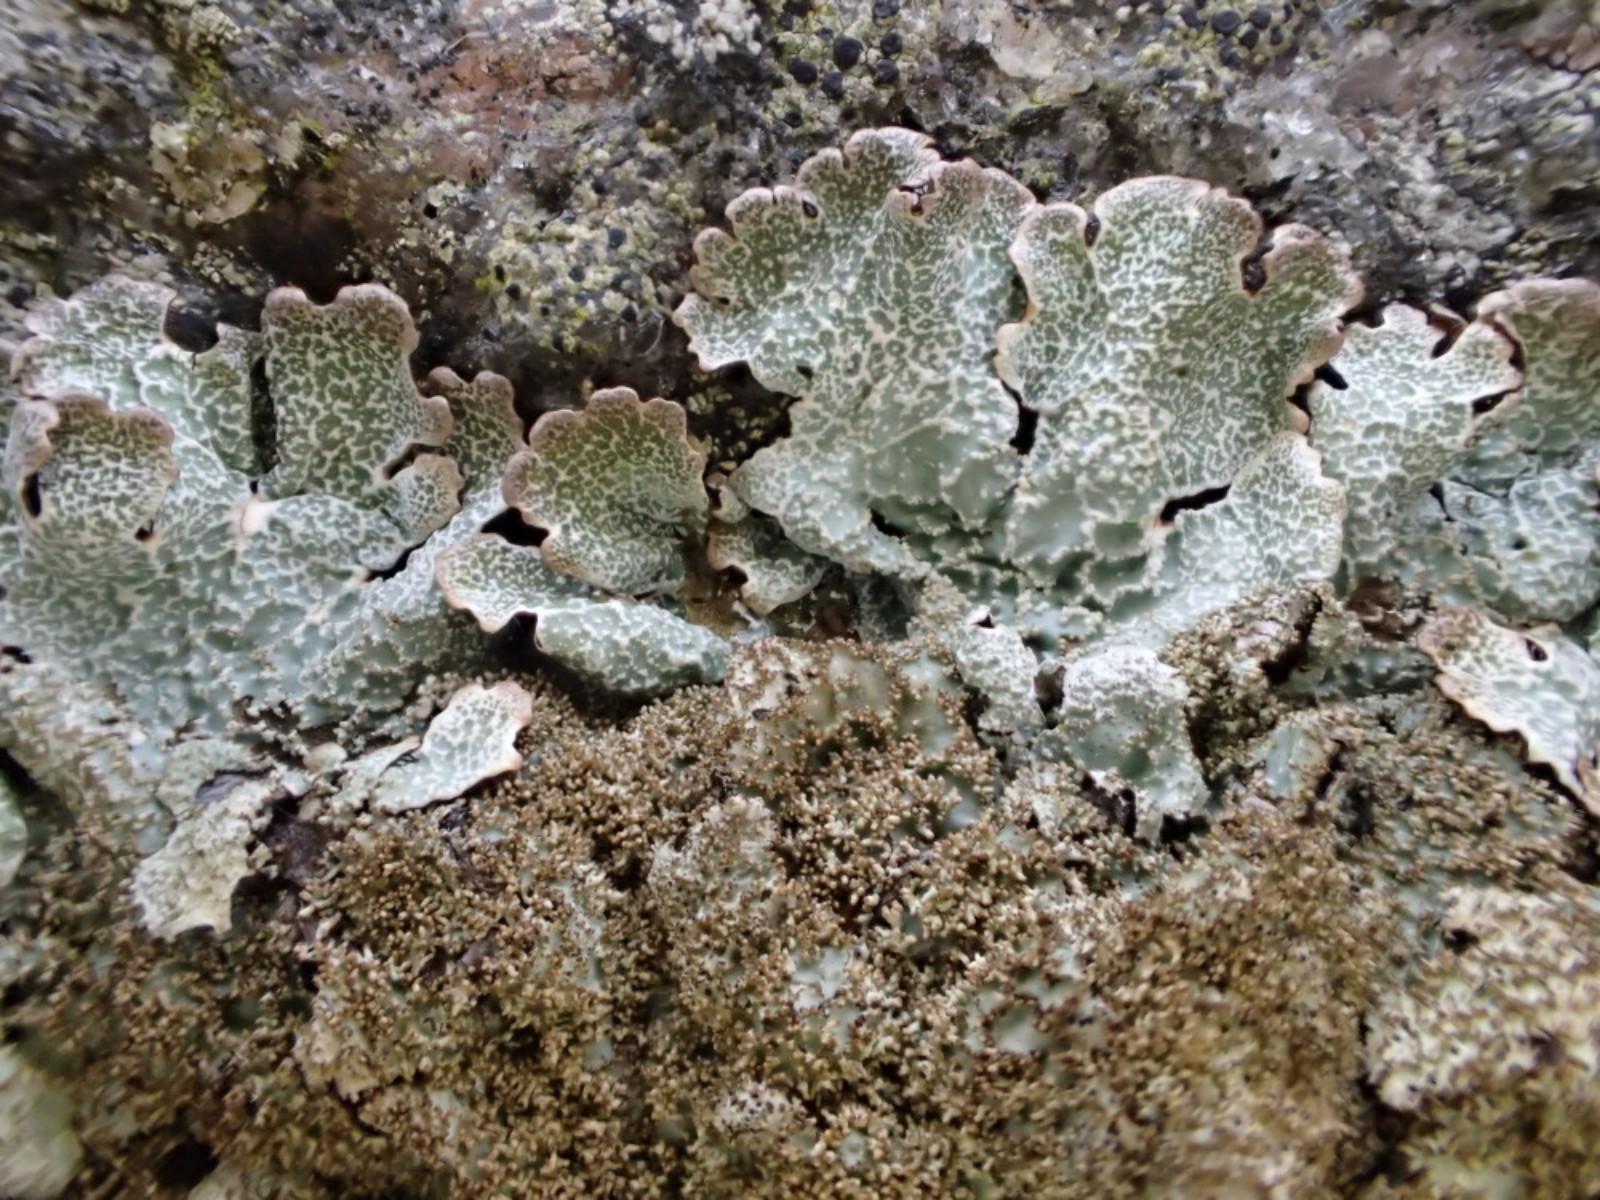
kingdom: Fungi
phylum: Ascomycota
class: Lecanoromycetes
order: Lecanorales
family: Parmeliaceae
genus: Parmelia
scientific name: Parmelia saxatilis
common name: farve-skållav
